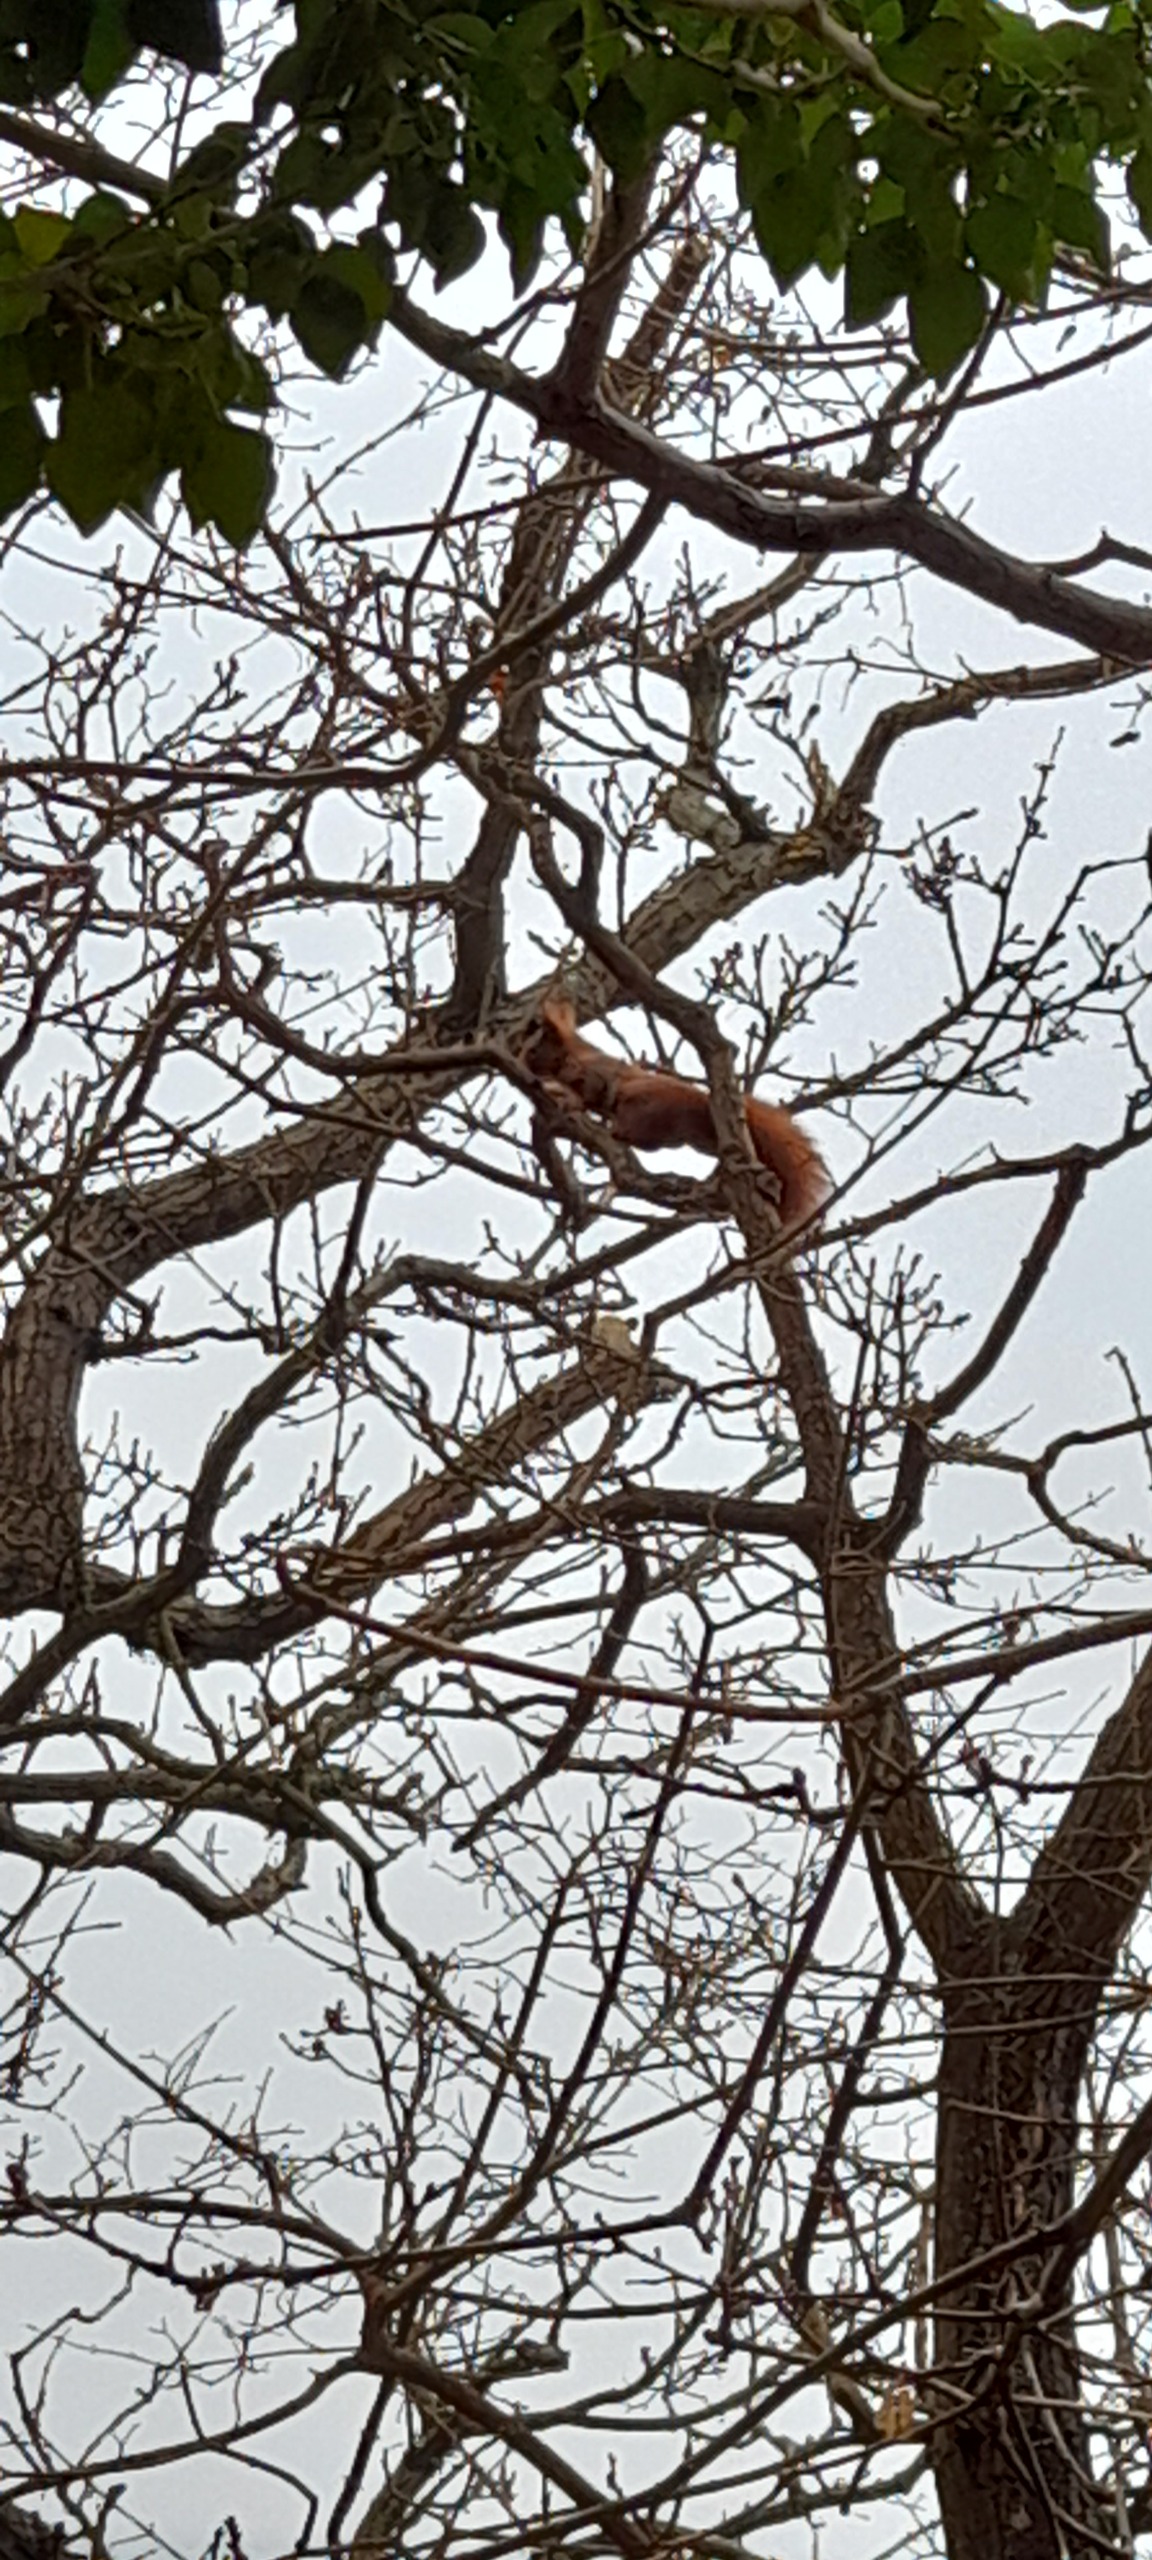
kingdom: Animalia
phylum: Chordata
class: Mammalia
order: Rodentia
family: Sciuridae
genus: Sciurus
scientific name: Sciurus vulgaris
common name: Egern
